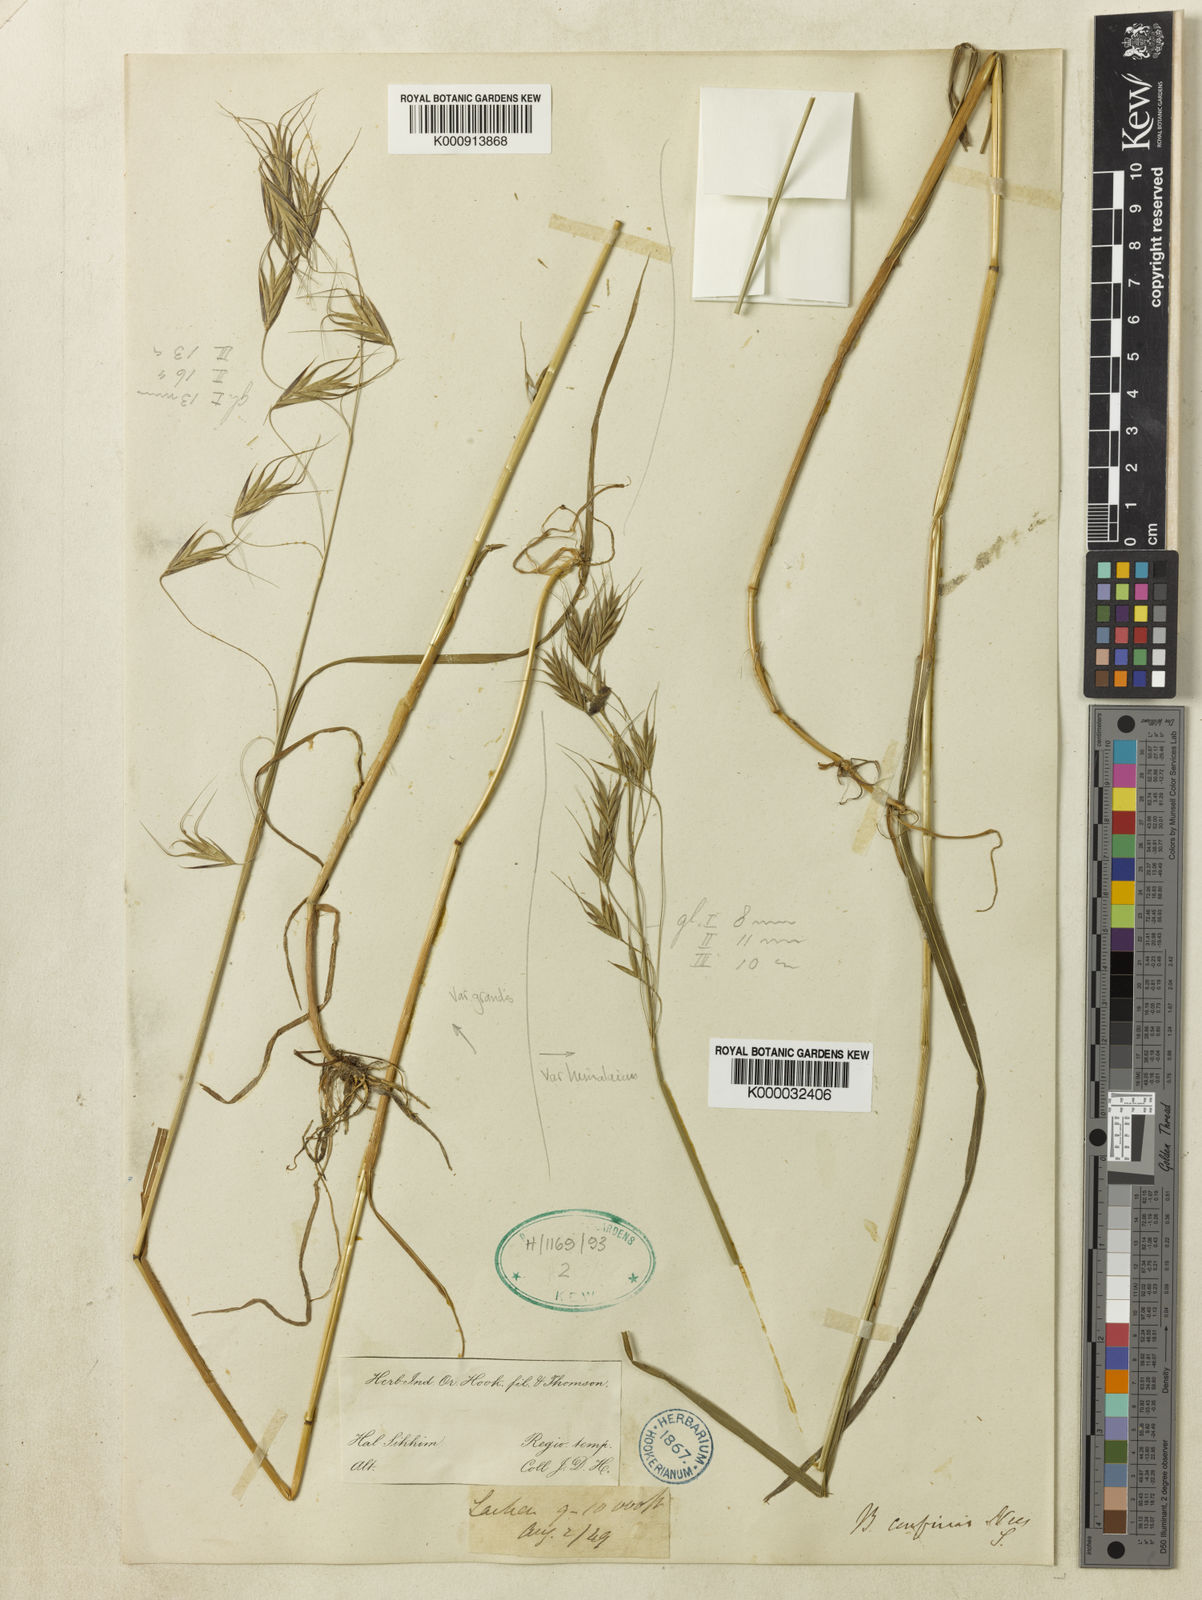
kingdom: Plantae
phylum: Tracheophyta
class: Liliopsida
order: Poales
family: Poaceae
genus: Bromus
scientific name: Bromus porphyranthos
